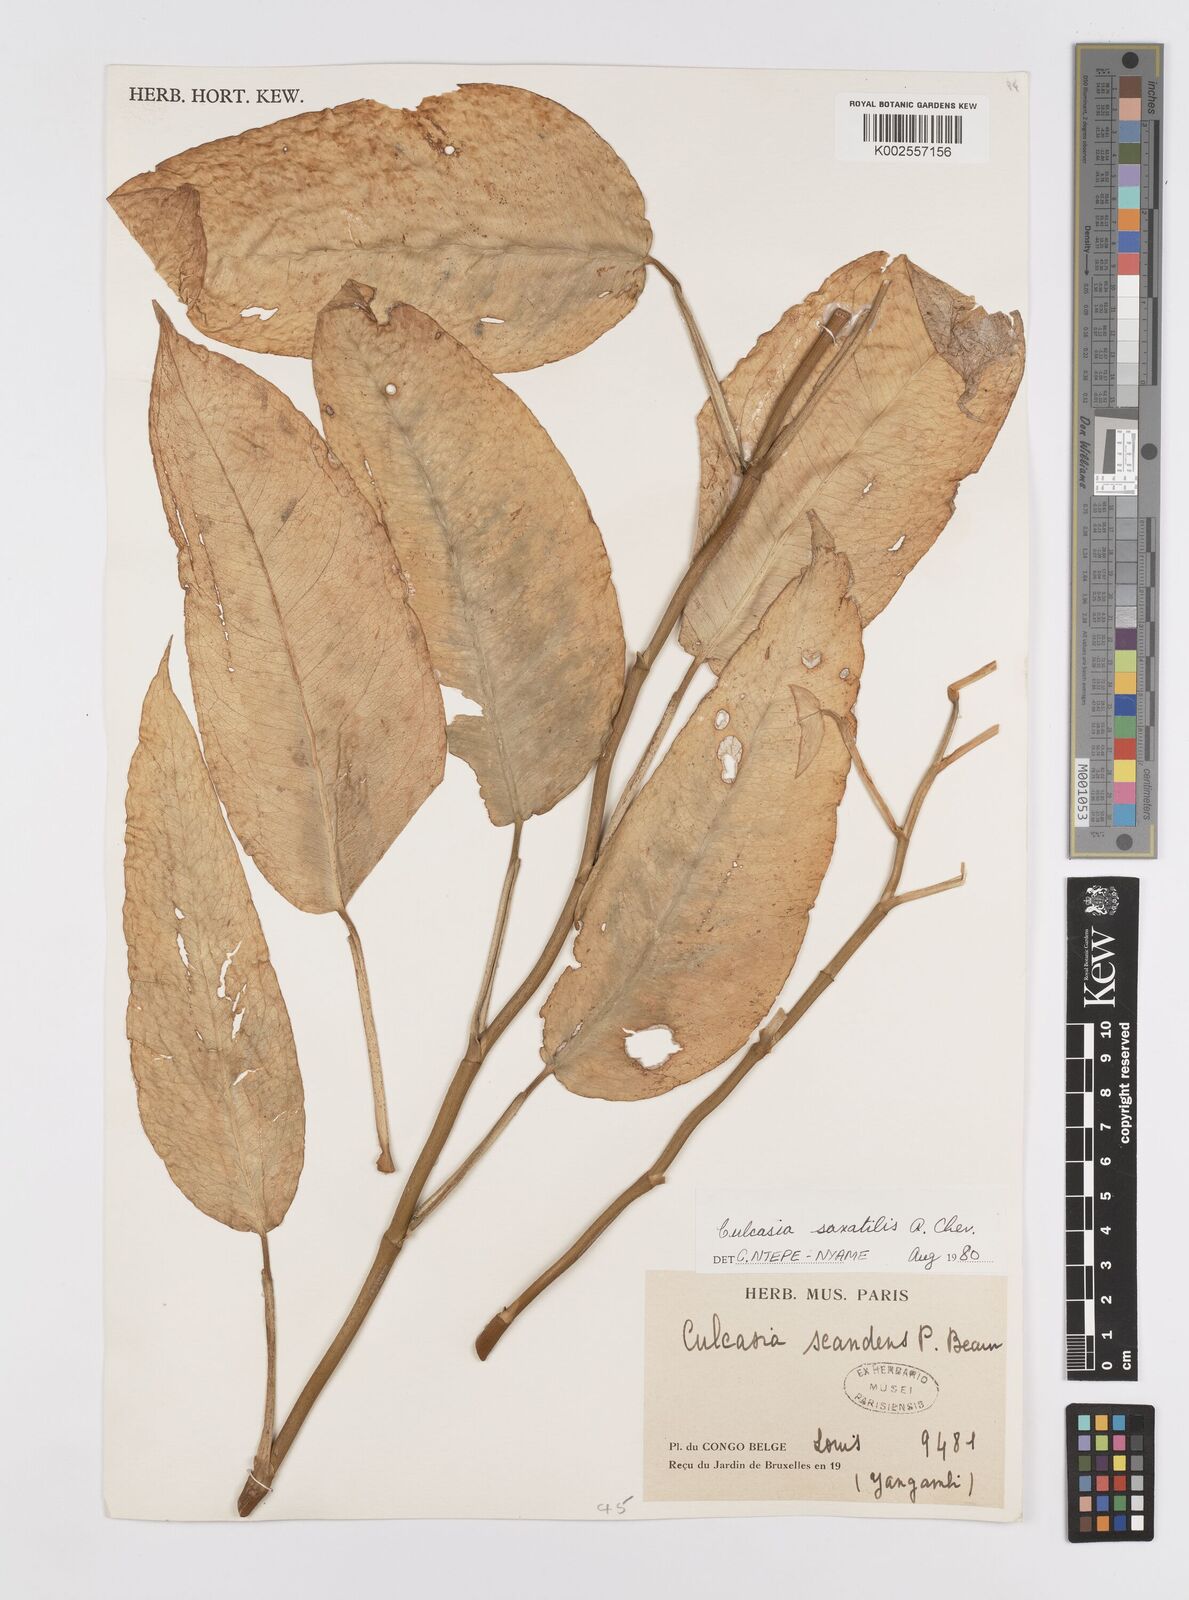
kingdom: Plantae
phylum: Tracheophyta
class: Liliopsida
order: Alismatales
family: Araceae
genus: Culcasia
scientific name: Culcasia scandens
